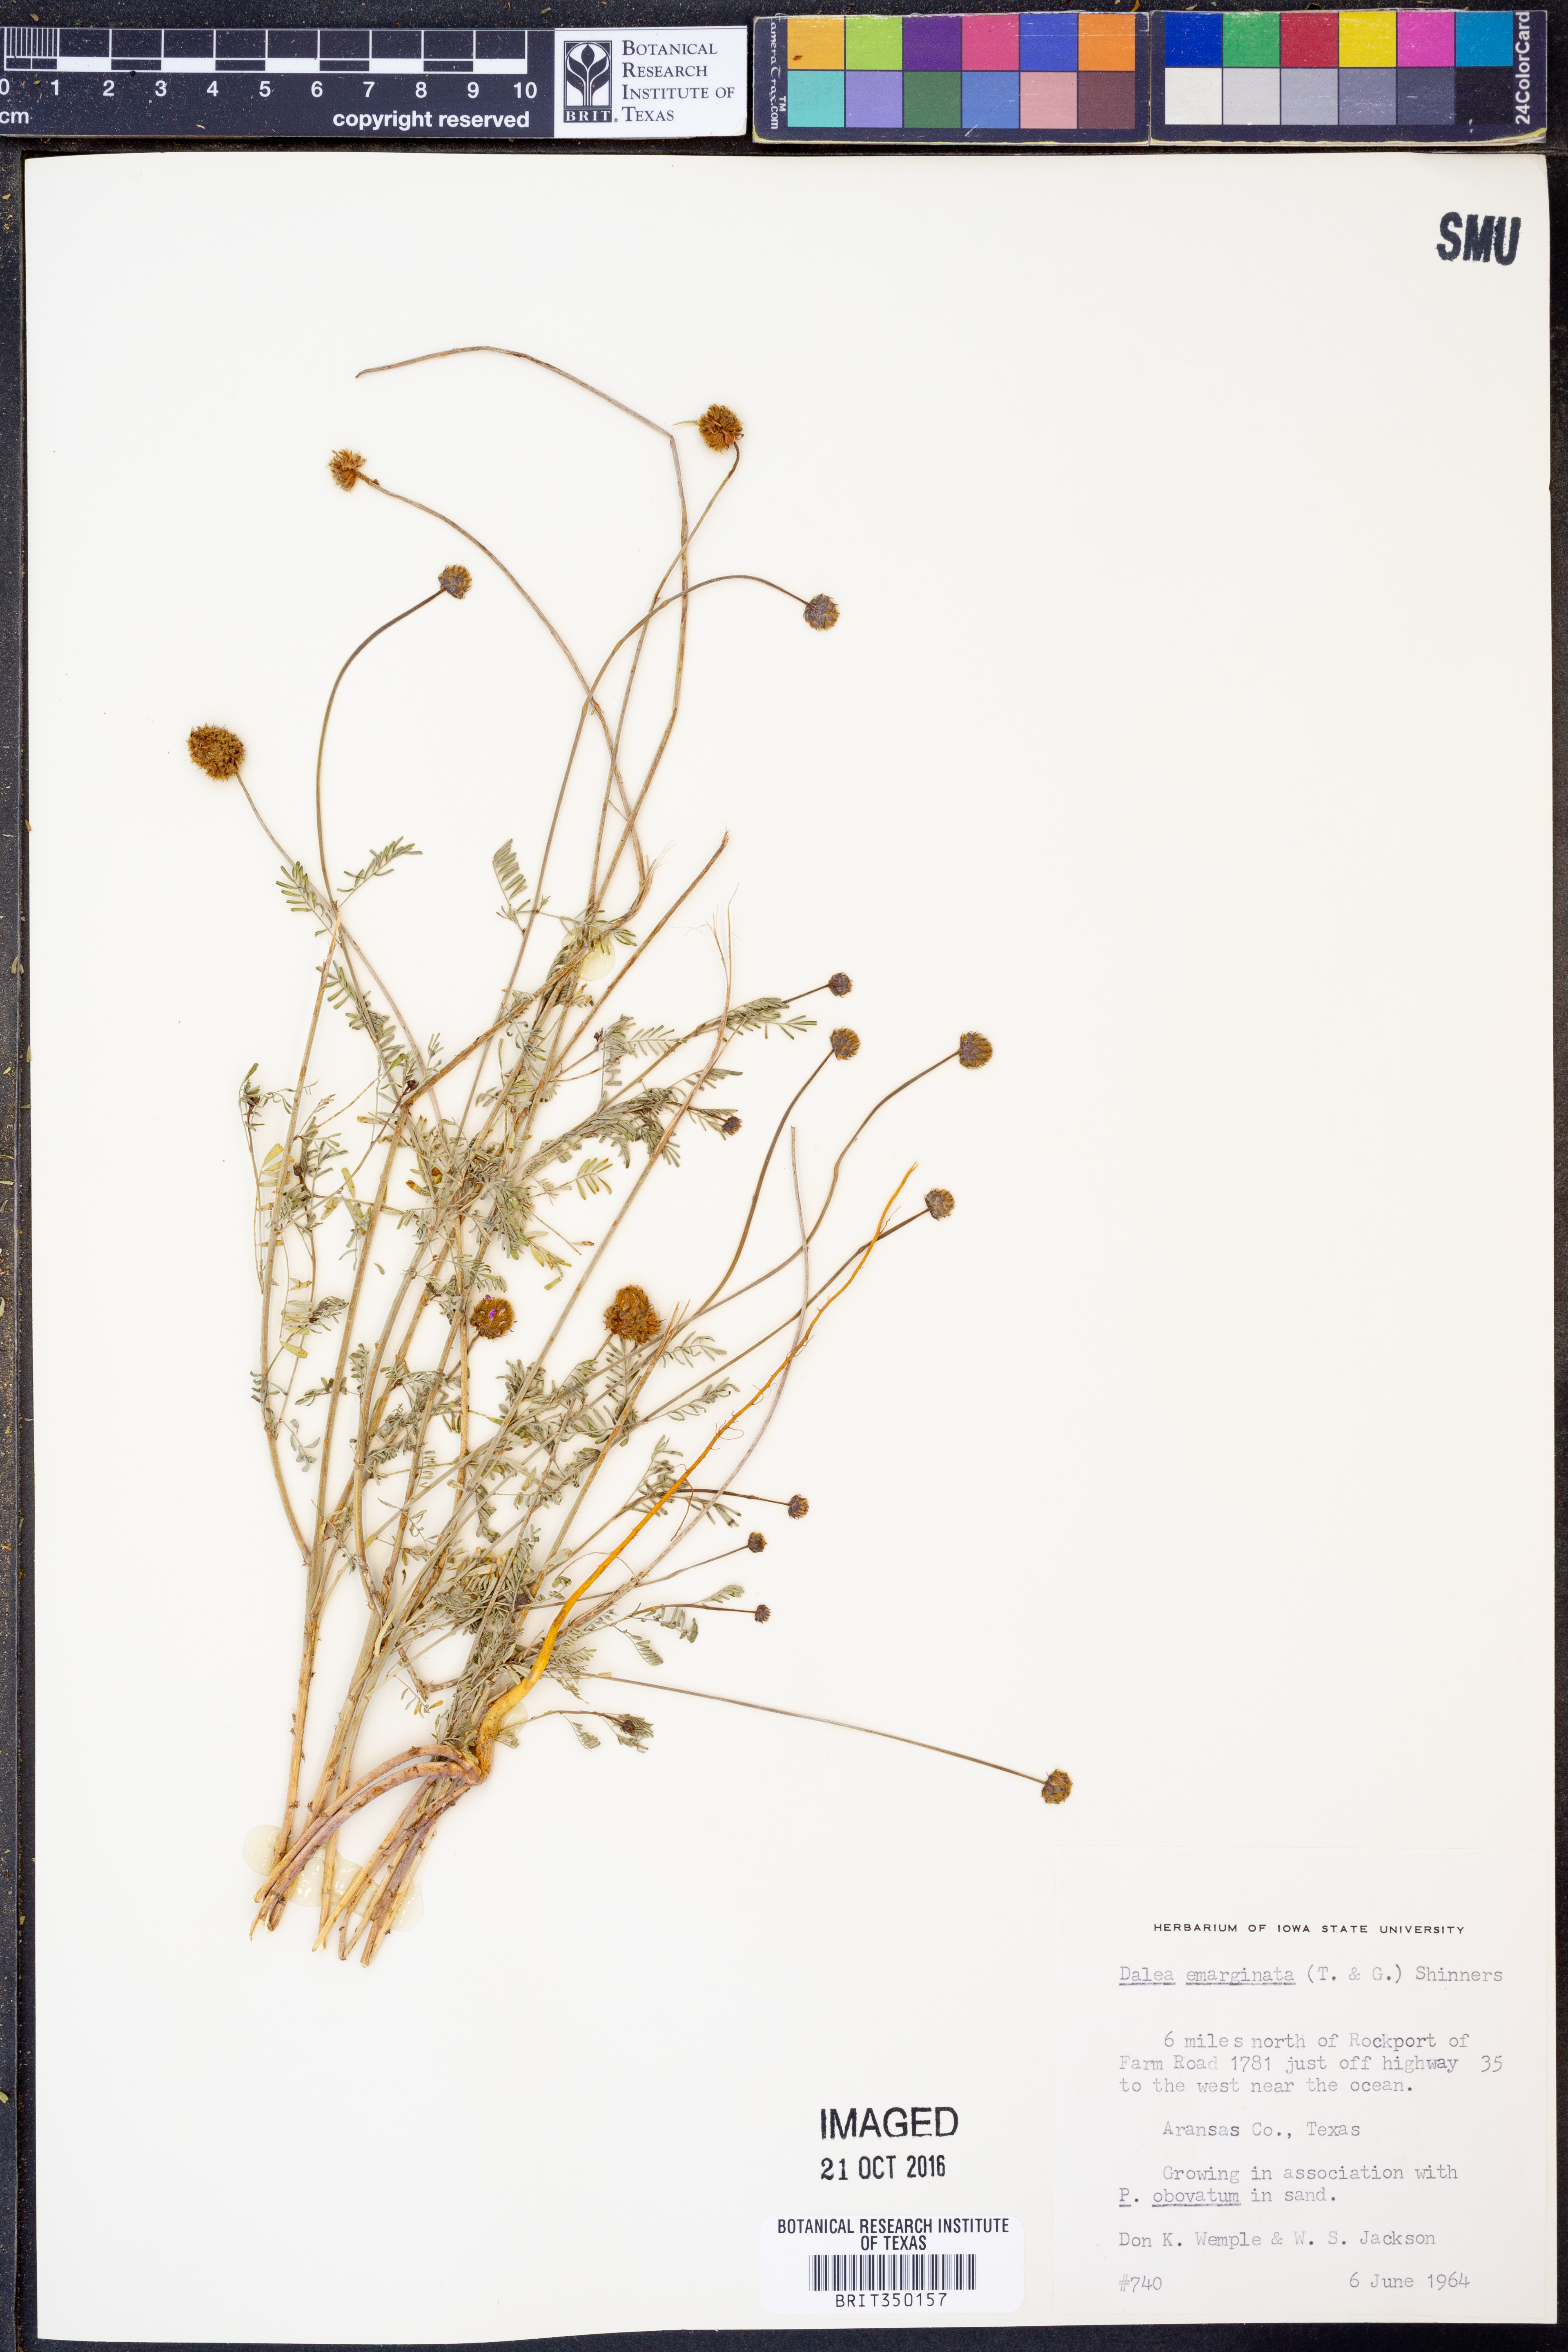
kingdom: Plantae
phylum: Tracheophyta
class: Magnoliopsida
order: Fabales
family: Fabaceae
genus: Dalea
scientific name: Dalea emarginata
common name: Wedgeleaf prairie clover
